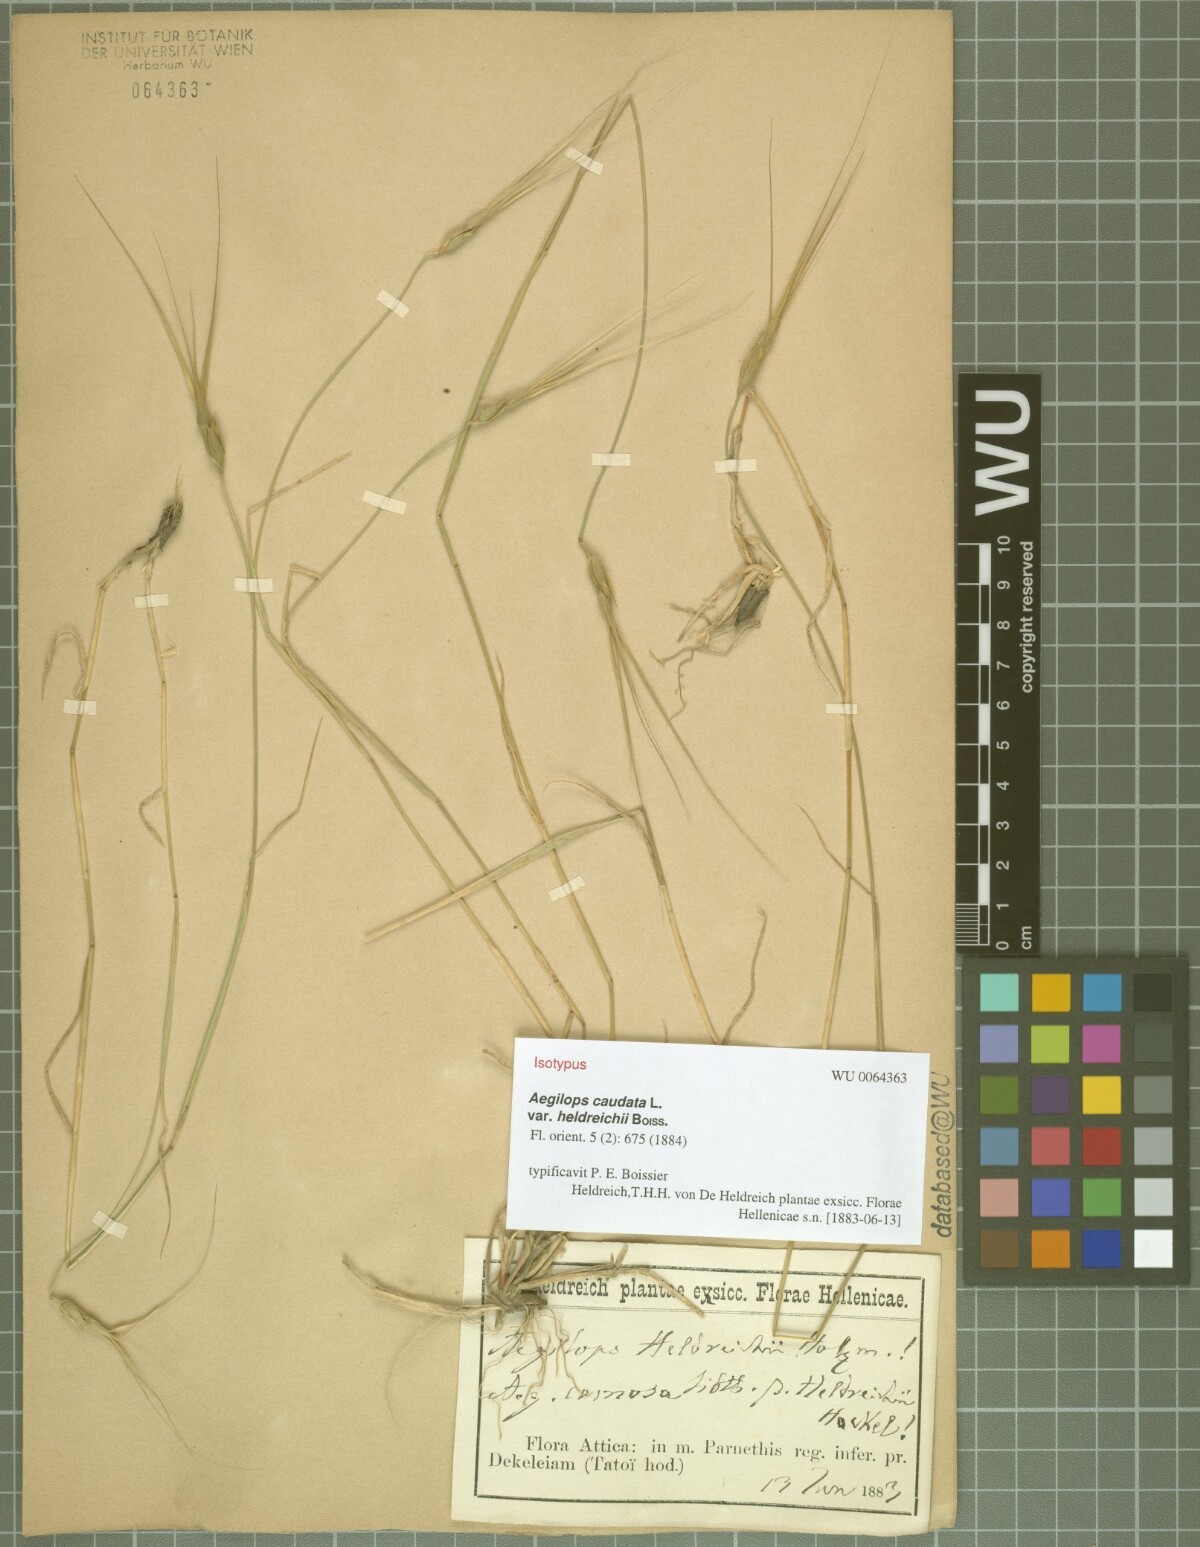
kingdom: Plantae
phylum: Tracheophyta
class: Liliopsida
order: Poales
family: Poaceae
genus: Aegilops
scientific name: Aegilops comosa
